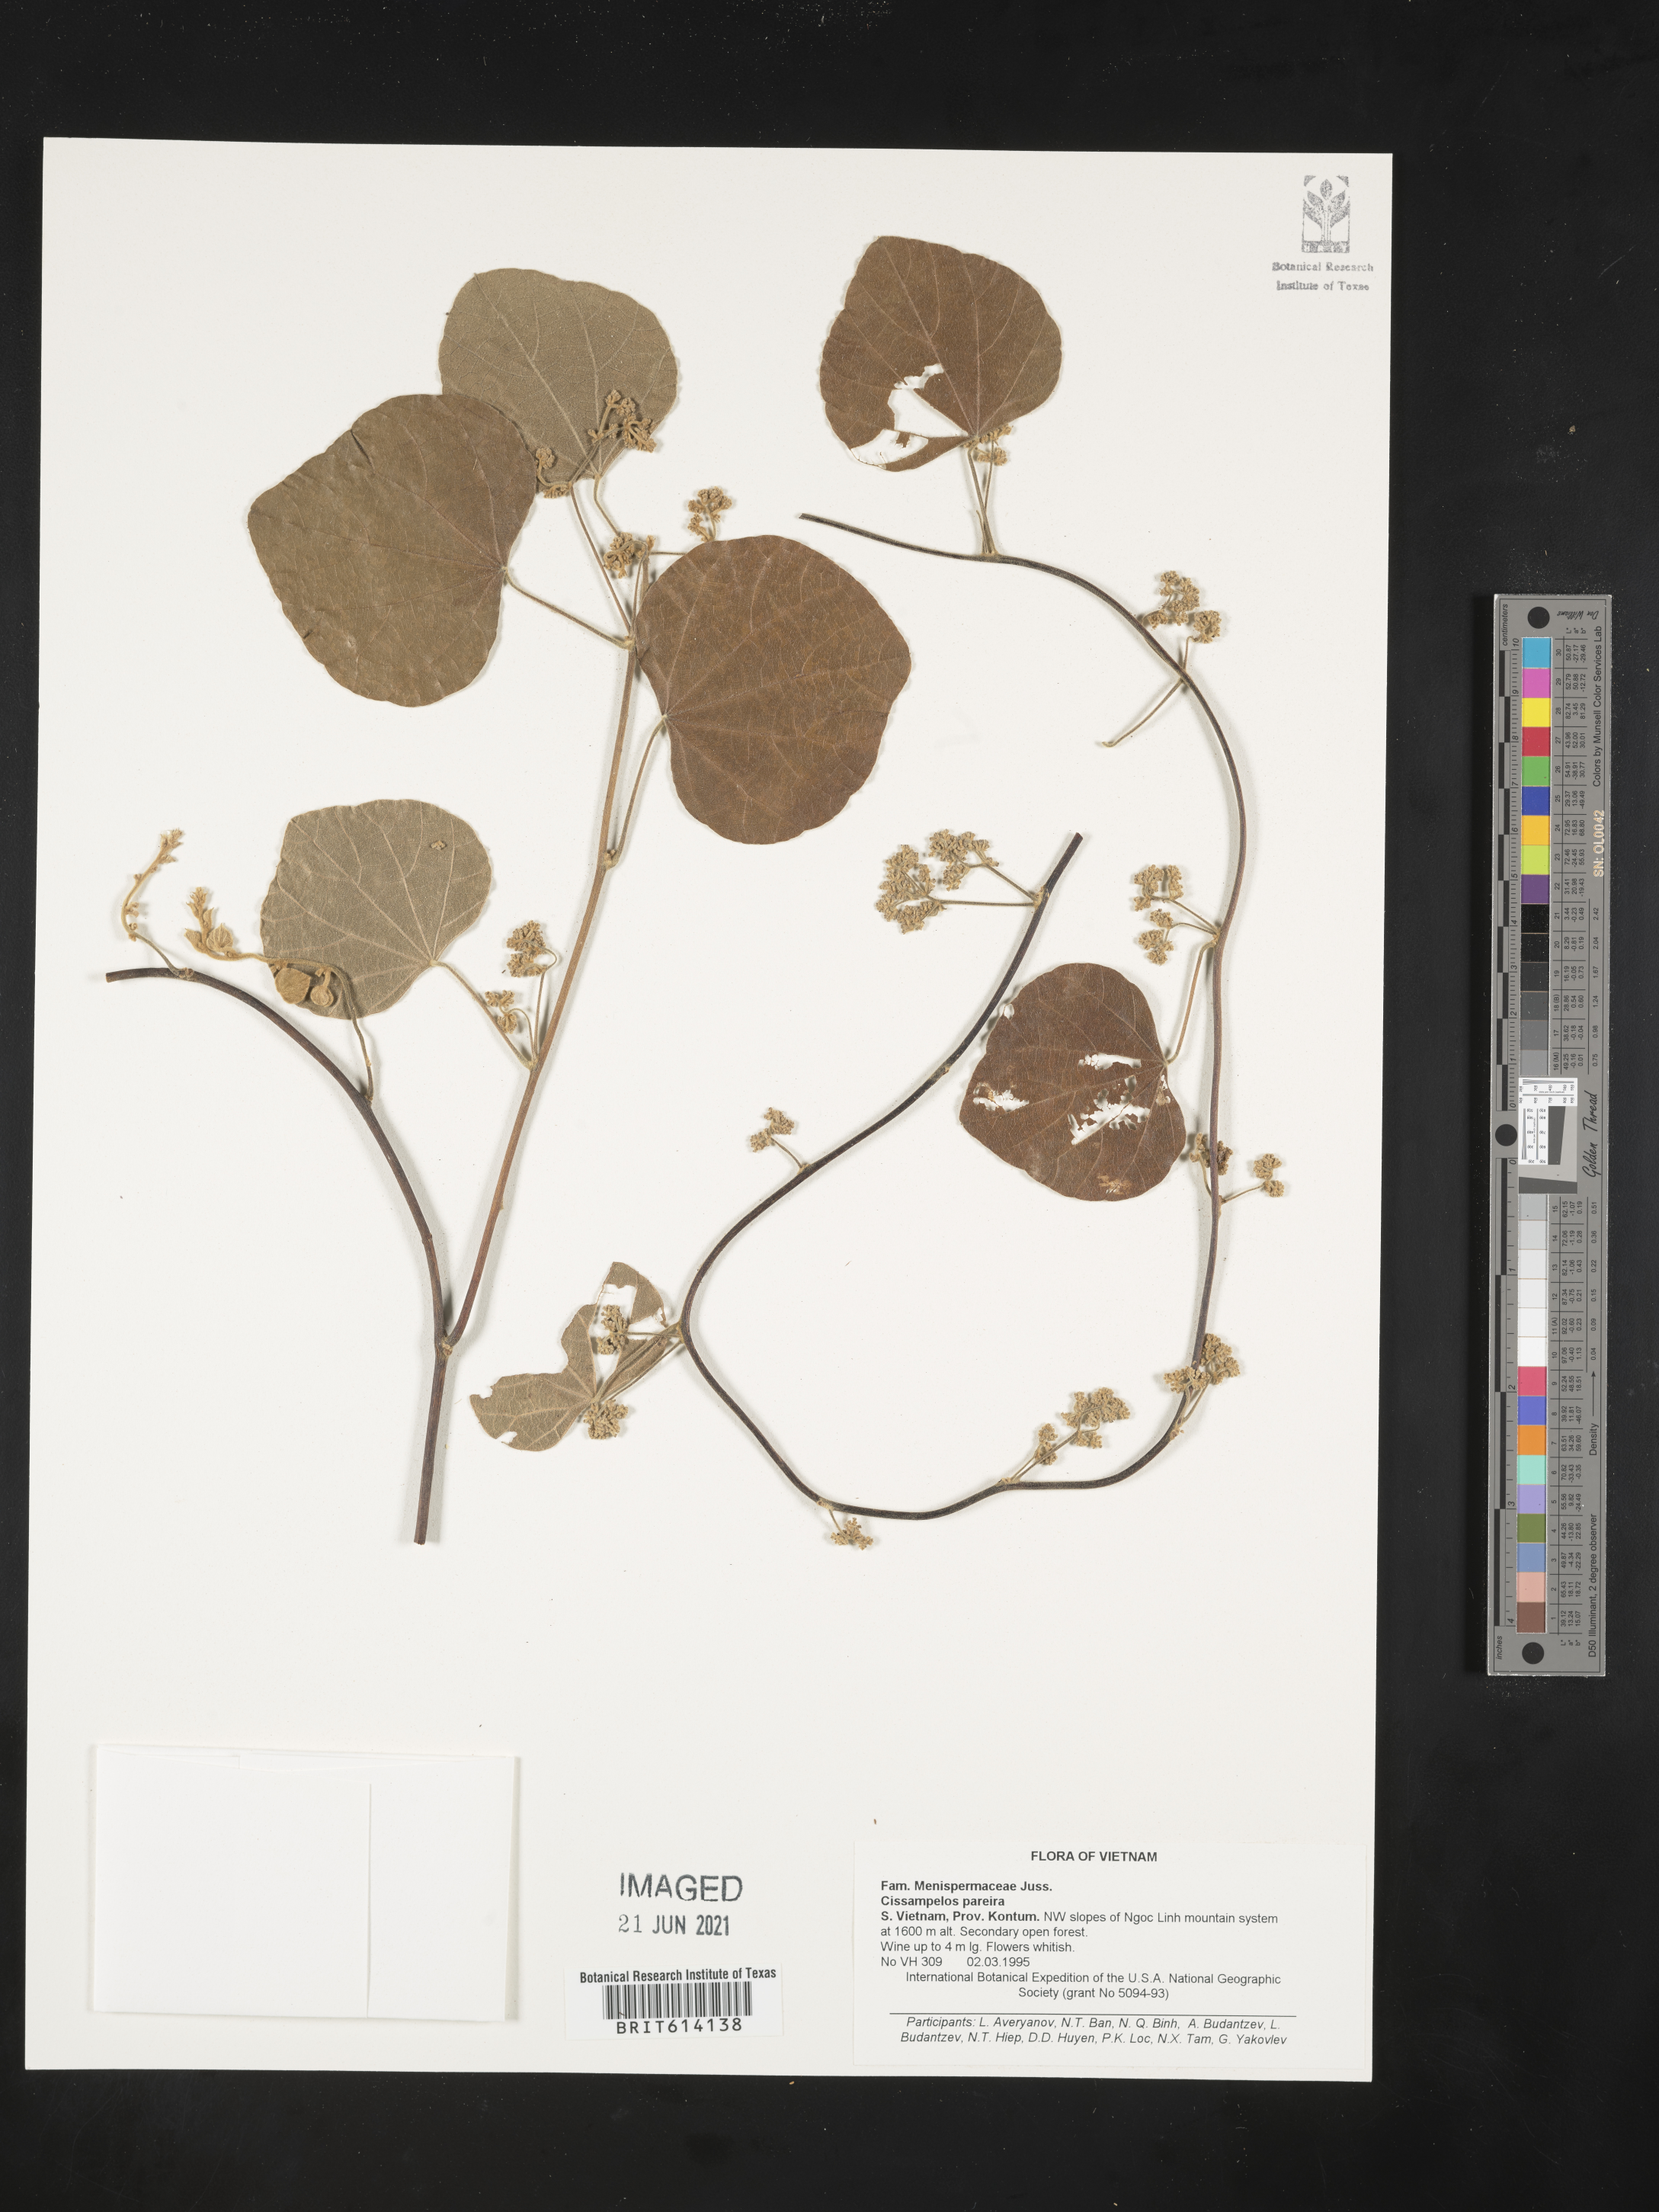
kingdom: Plantae
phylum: Tracheophyta
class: Magnoliopsida
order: Ranunculales
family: Menispermaceae
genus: Cissampelos
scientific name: Cissampelos pareira
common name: Velvetleaf
